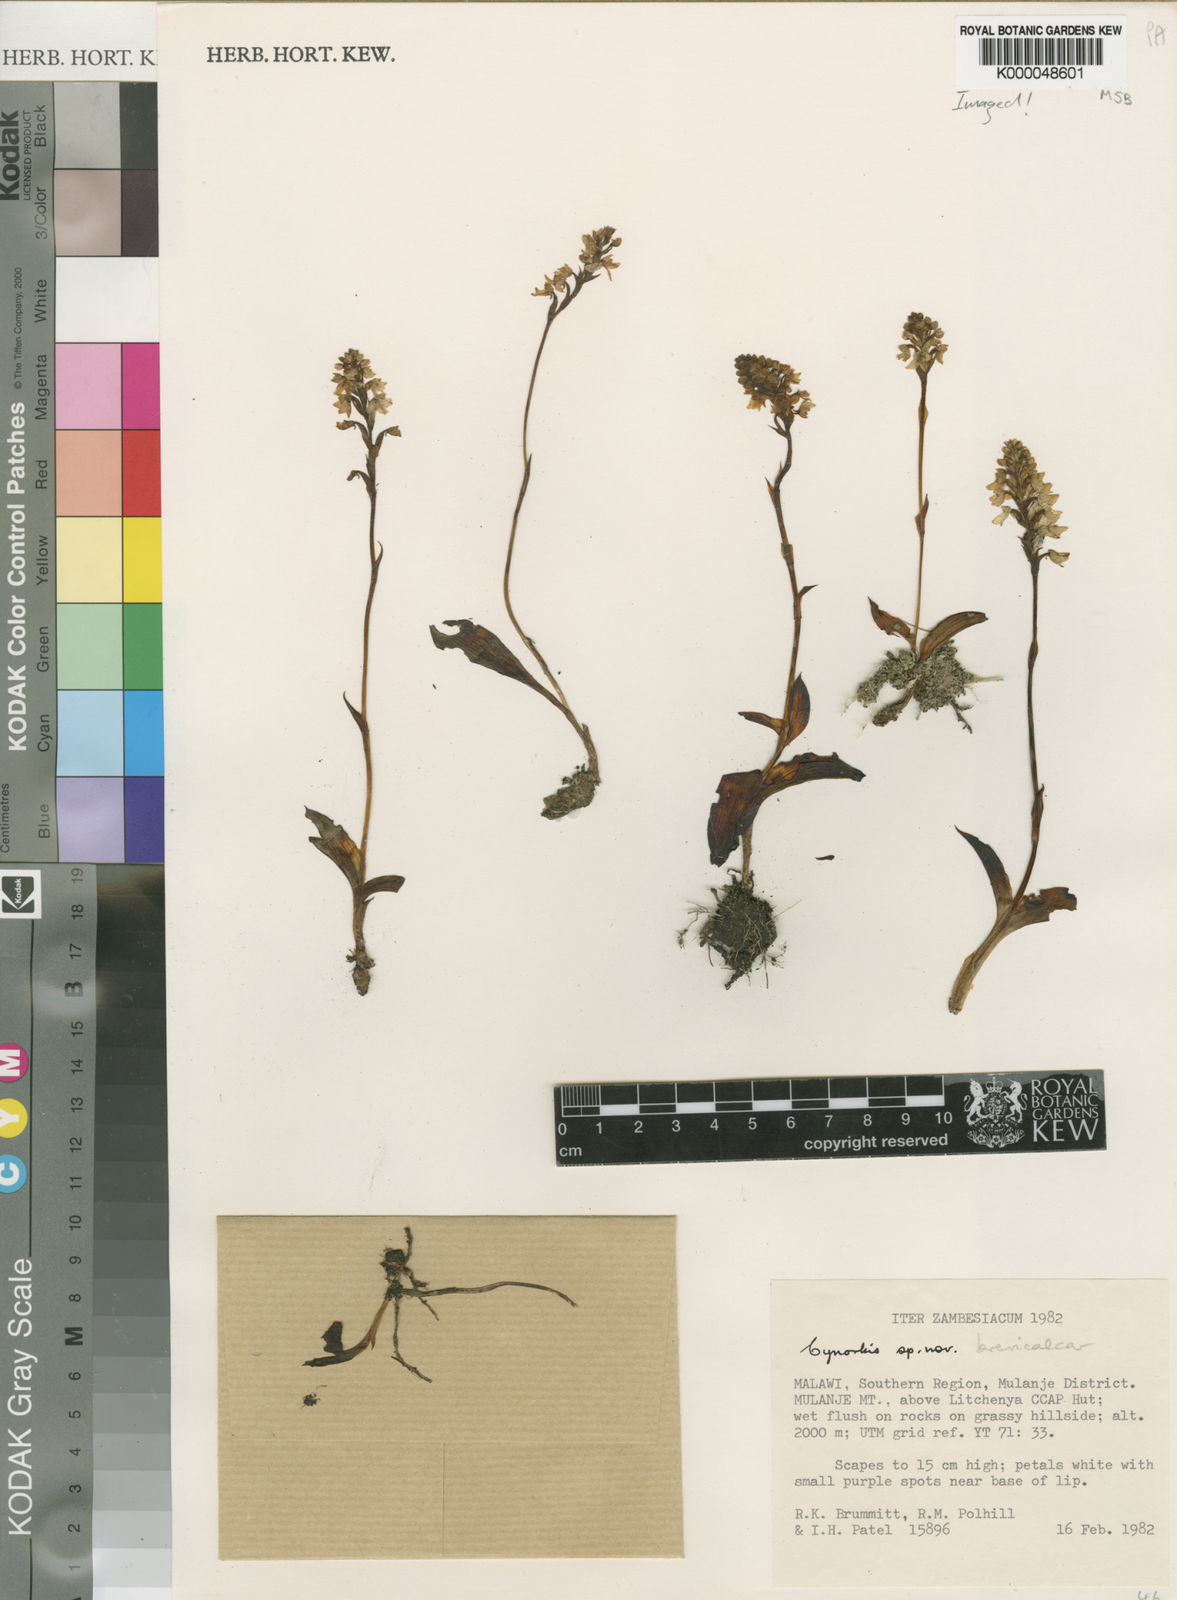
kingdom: Plantae
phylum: Tracheophyta
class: Liliopsida
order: Asparagales
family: Orchidaceae
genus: Cynorkis
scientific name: Cynorkis brevicalcar
